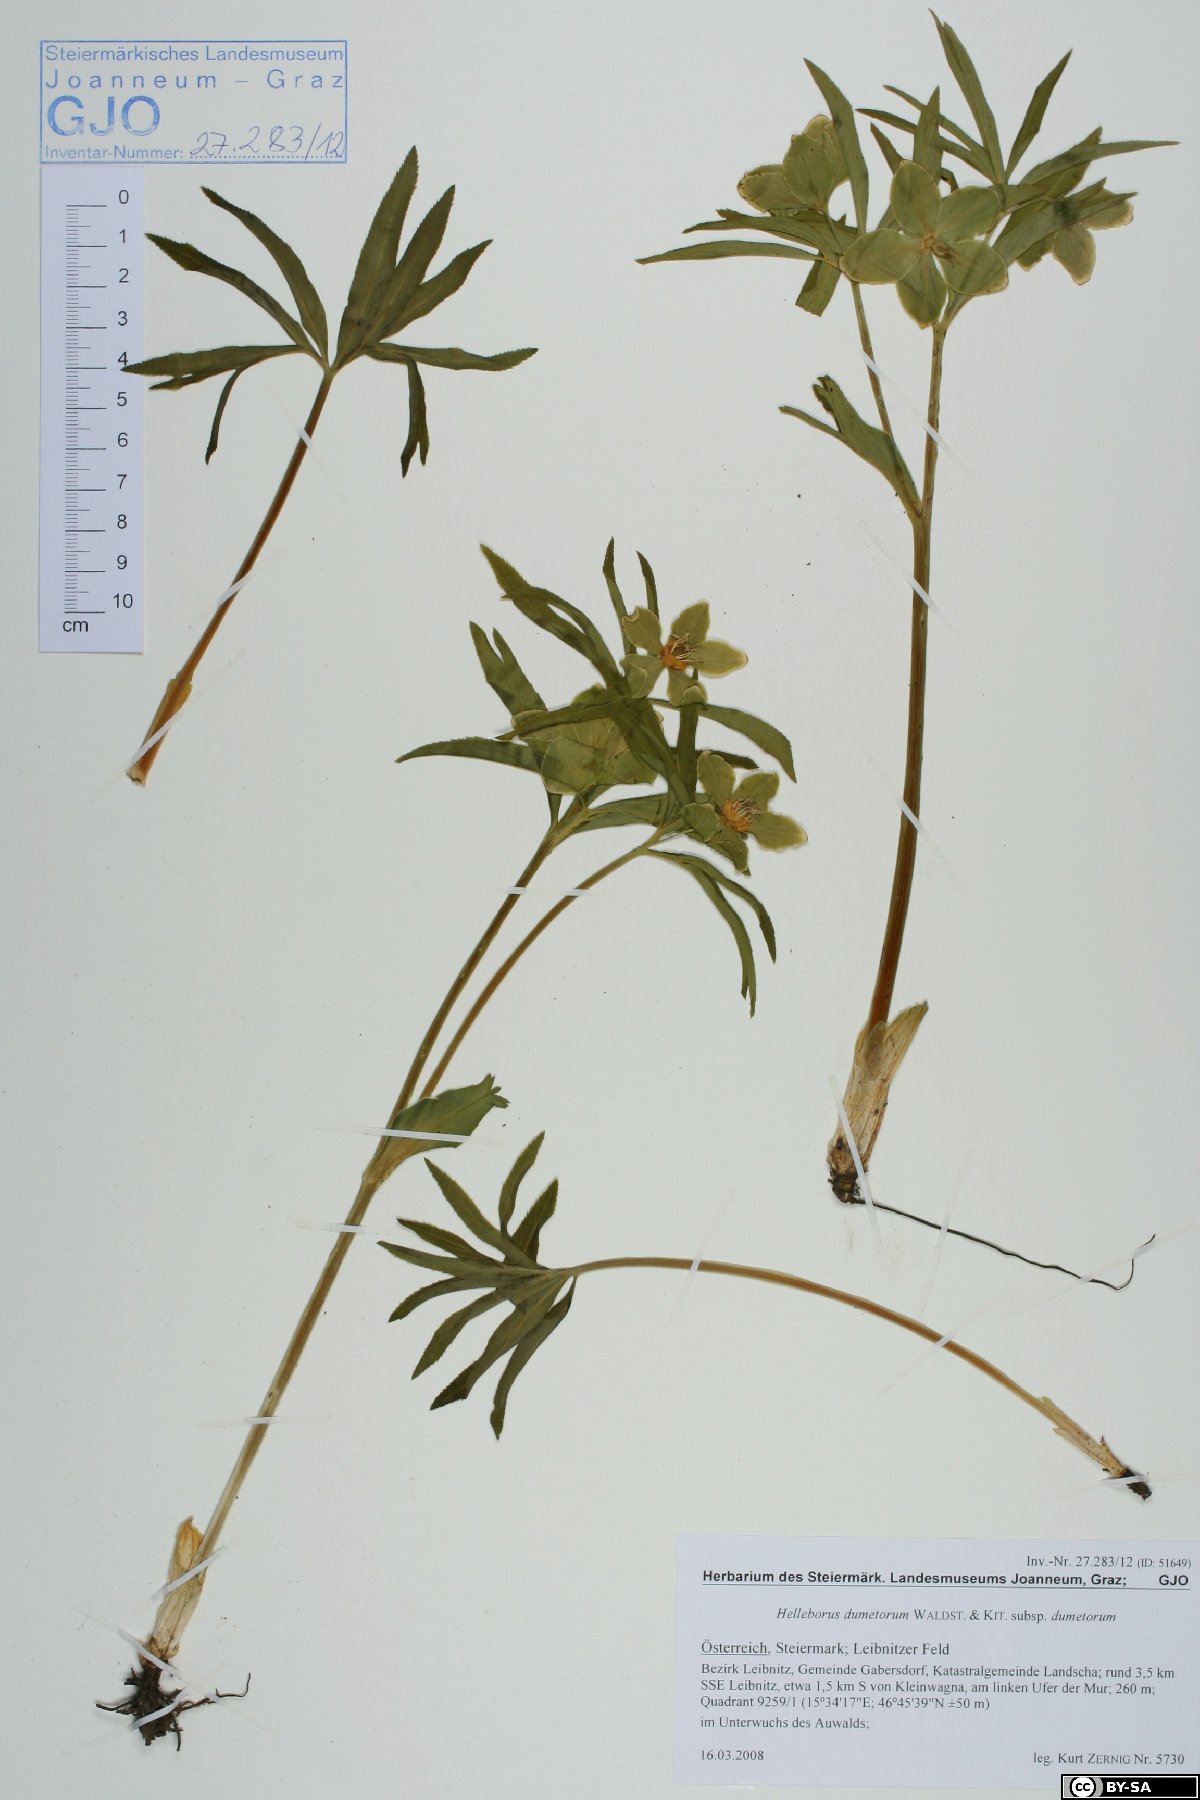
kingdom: Plantae
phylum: Tracheophyta
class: Magnoliopsida
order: Ranunculales
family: Ranunculaceae
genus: Helleborus
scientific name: Helleborus dumetorum
